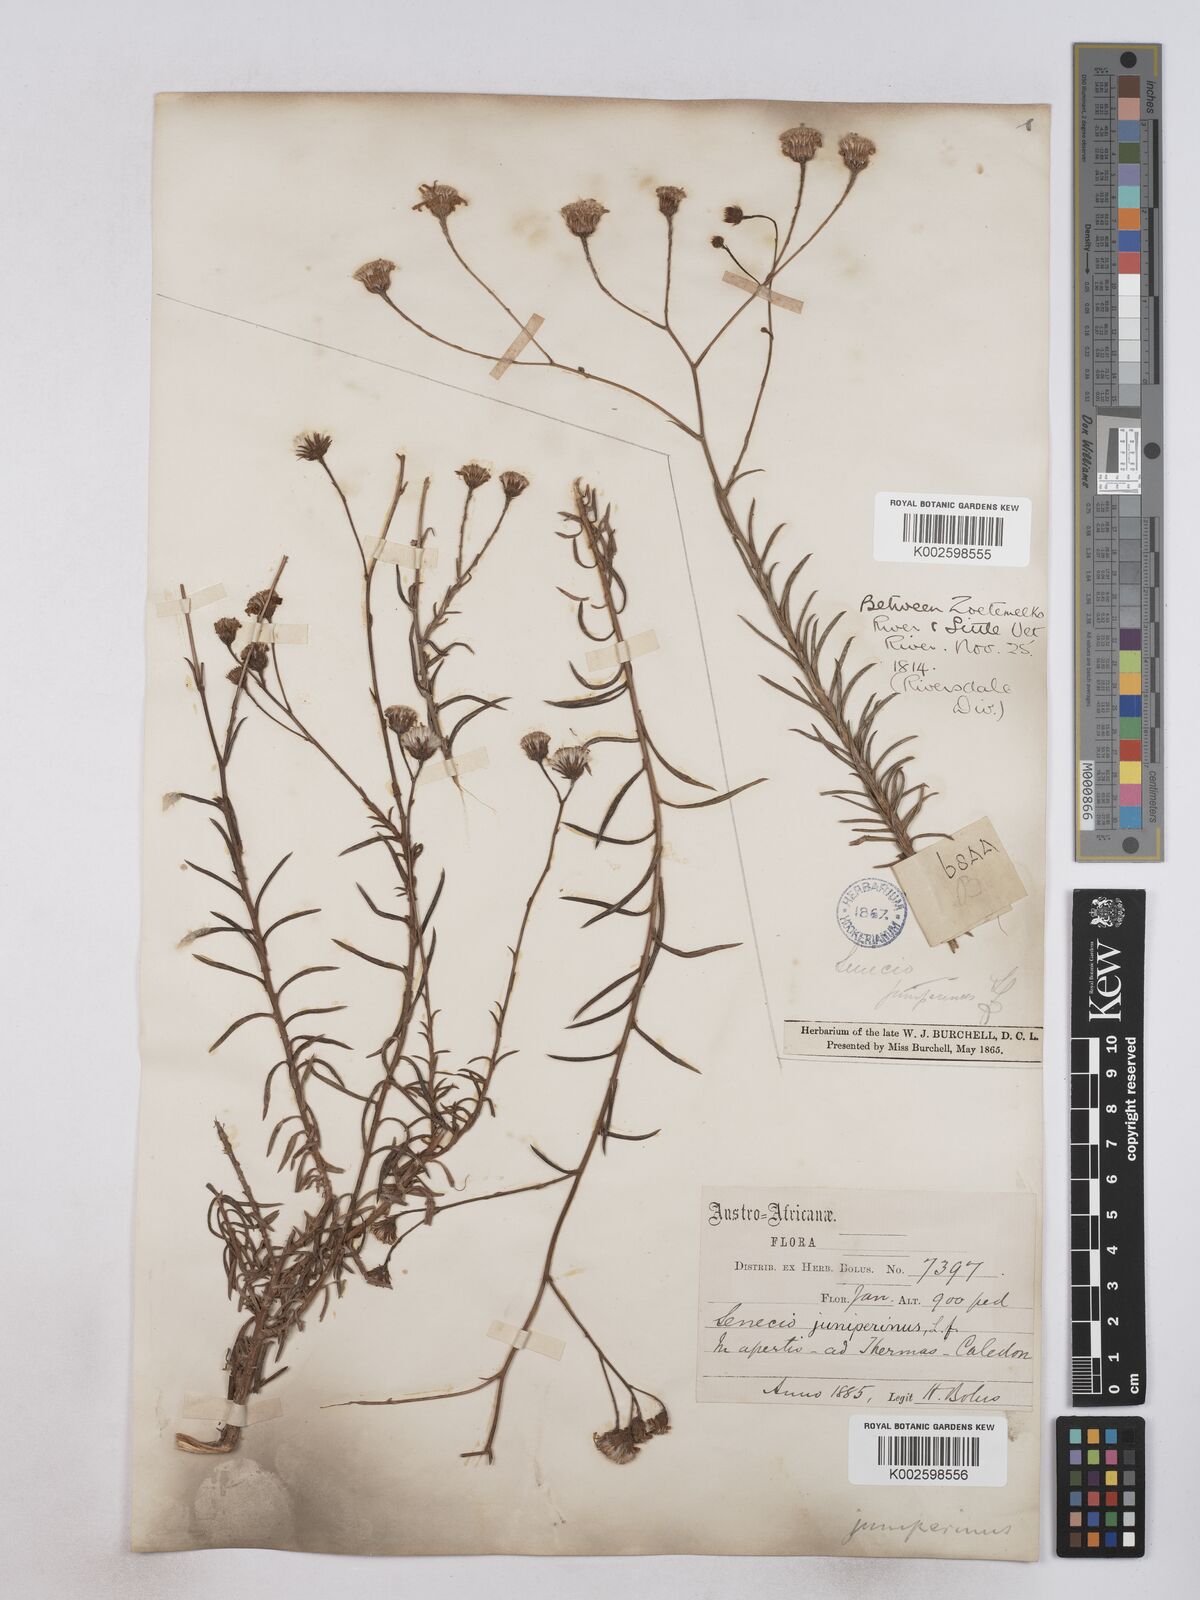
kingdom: Plantae
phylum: Tracheophyta
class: Magnoliopsida
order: Asterales
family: Asteraceae
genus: Senecio
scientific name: Senecio juniperinus
